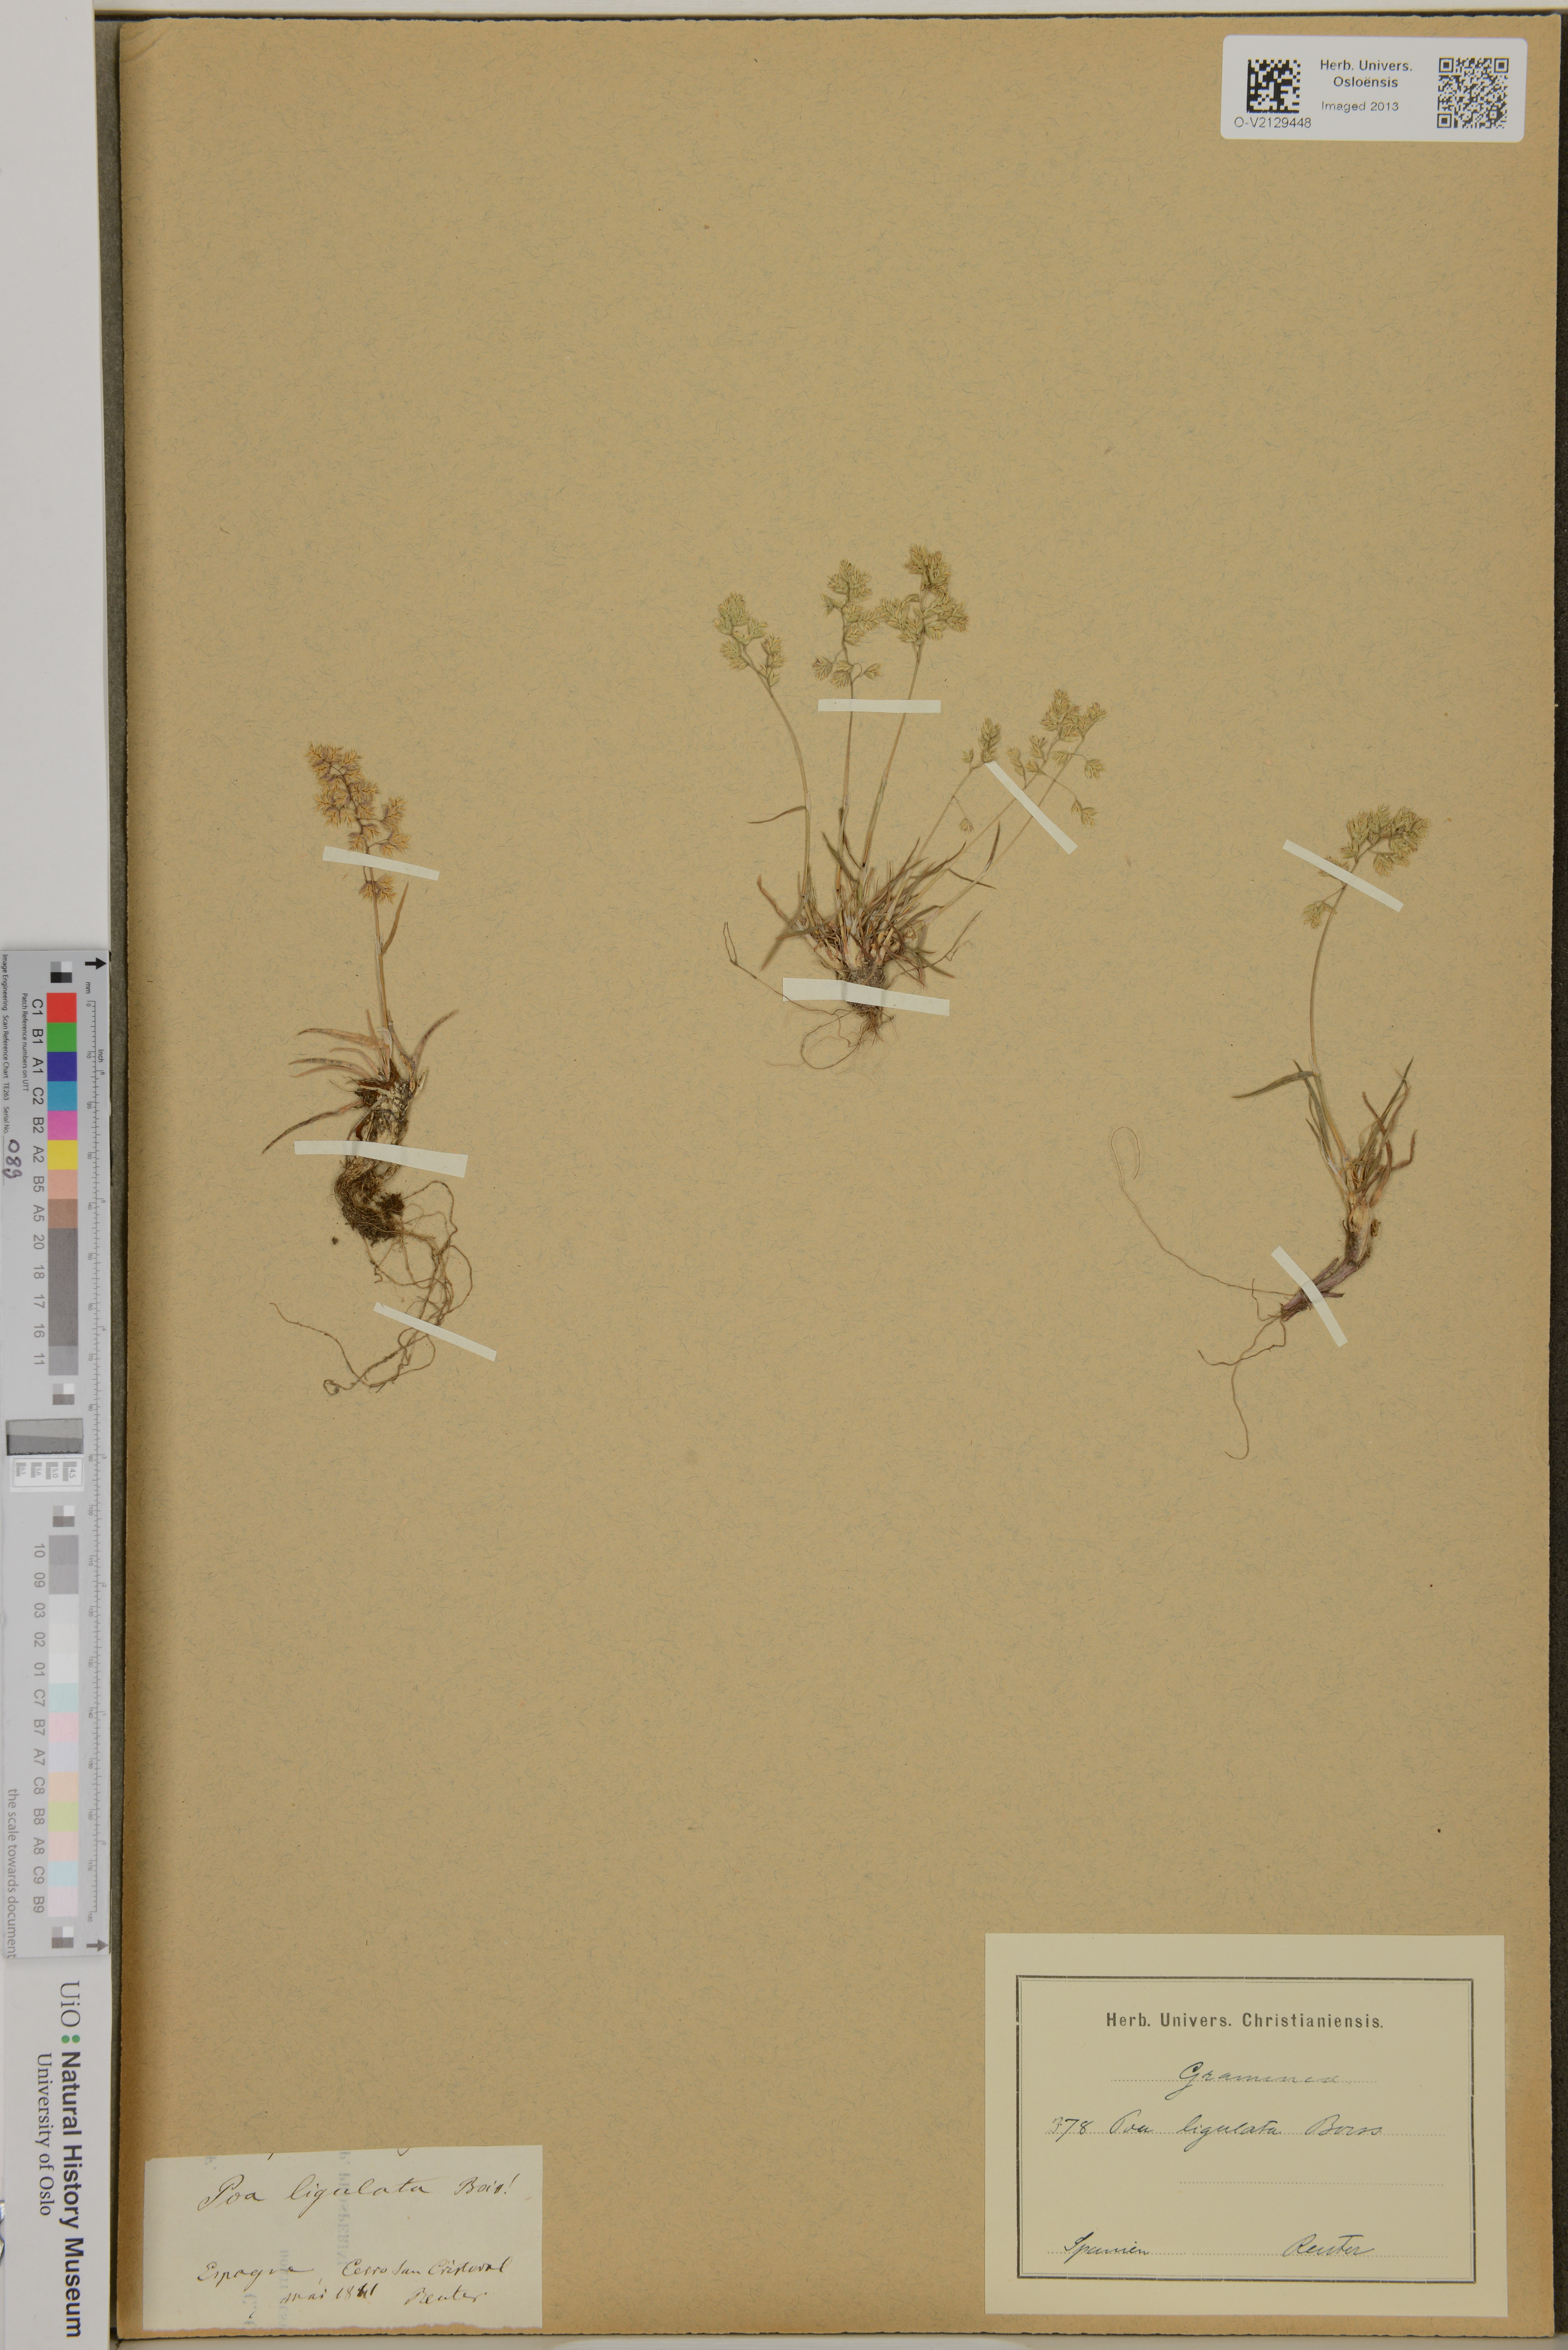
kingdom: Plantae
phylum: Tracheophyta
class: Liliopsida
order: Poales
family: Poaceae
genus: Poa
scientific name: Poa ligulata
